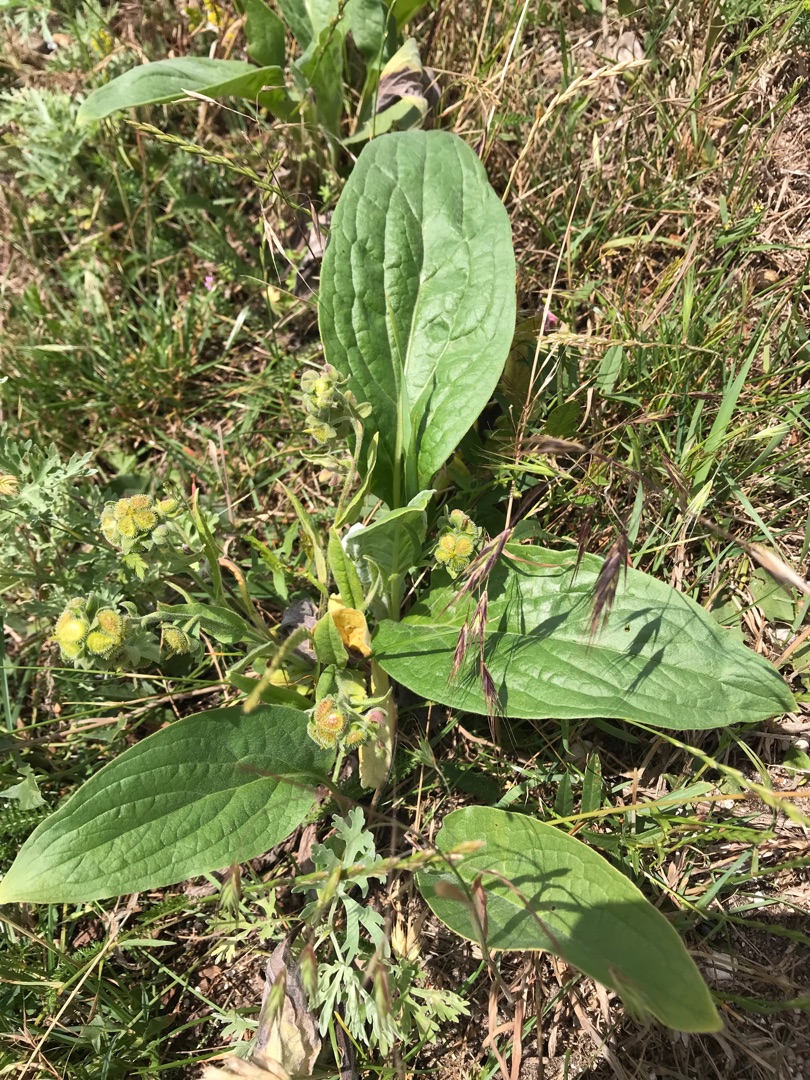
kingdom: Plantae
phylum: Tracheophyta
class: Magnoliopsida
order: Boraginales
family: Boraginaceae
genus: Cynoglossum
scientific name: Cynoglossum officinale
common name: Hundetunge
